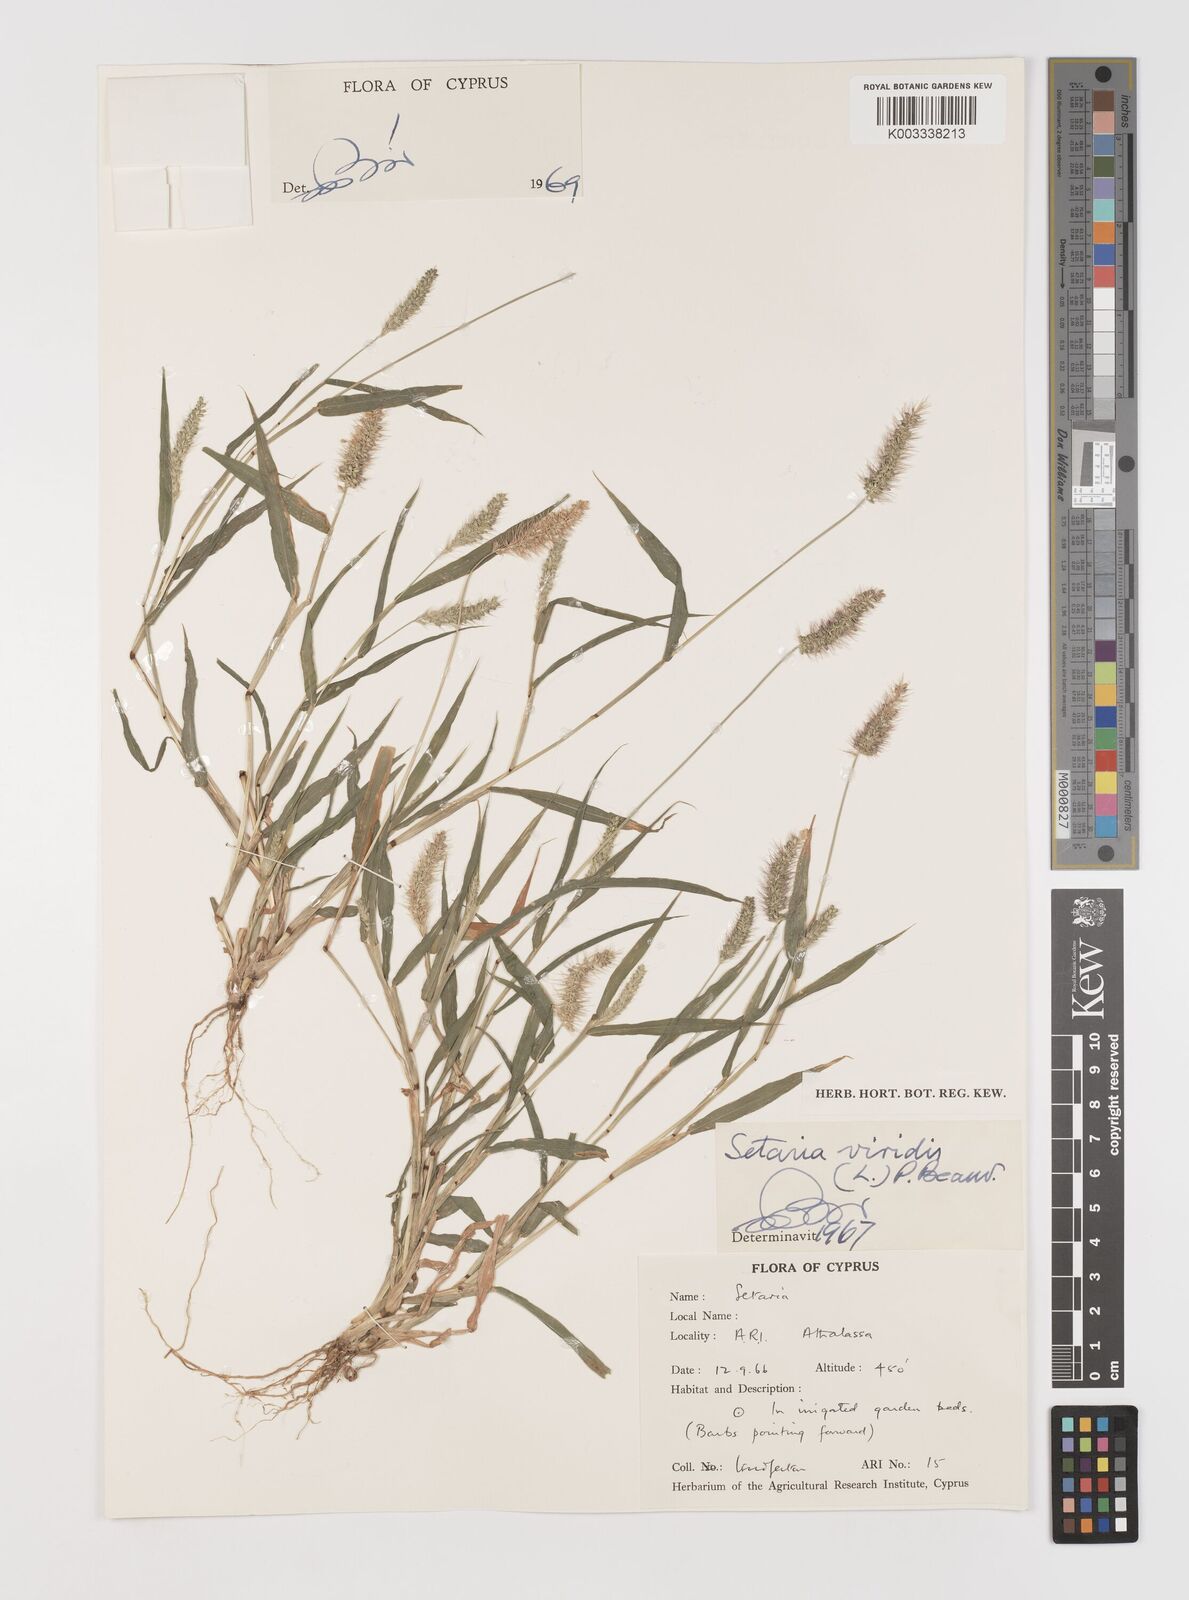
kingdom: Plantae
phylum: Tracheophyta
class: Liliopsida
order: Poales
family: Poaceae
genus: Setaria
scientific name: Setaria verticillata
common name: Hooked bristlegrass
